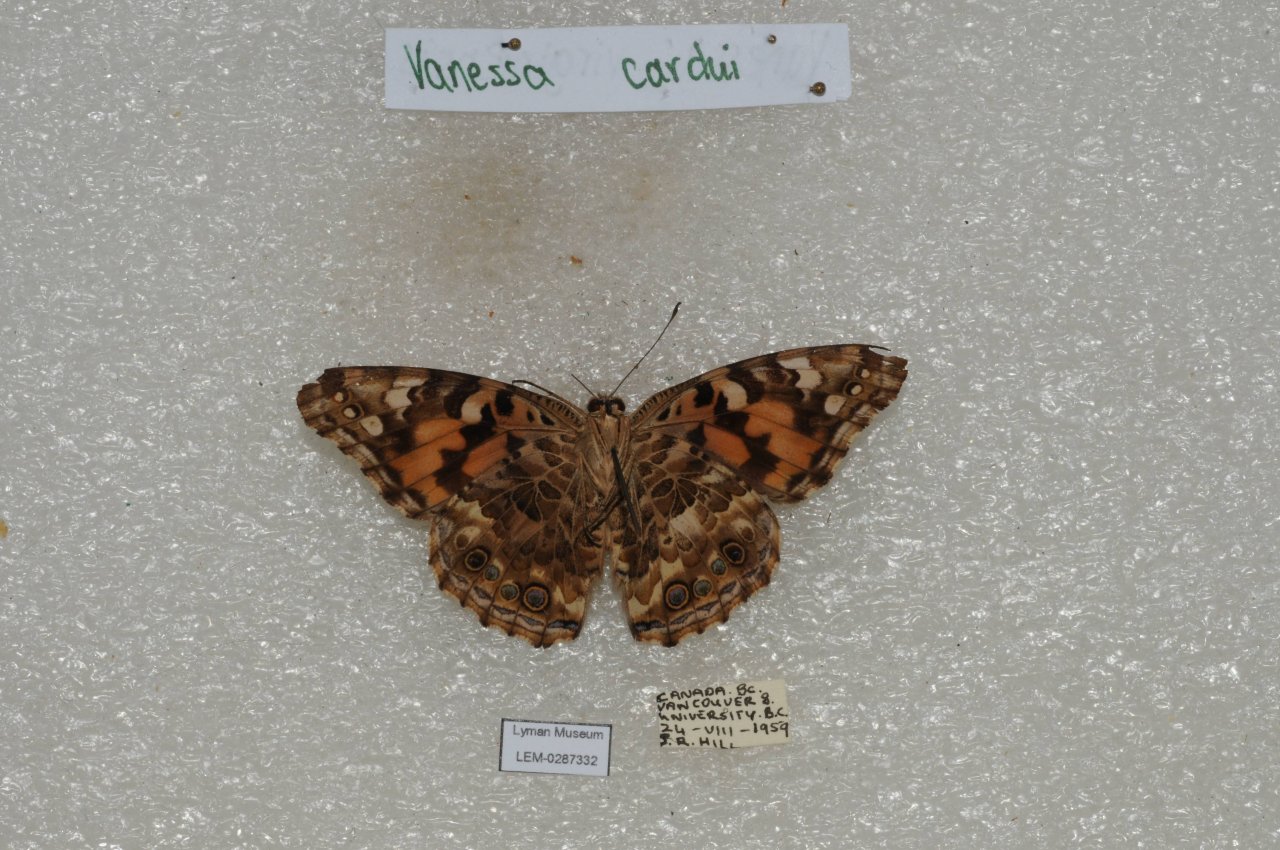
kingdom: Animalia
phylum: Arthropoda
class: Insecta
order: Lepidoptera
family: Nymphalidae
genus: Vanessa
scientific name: Vanessa cardui
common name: Painted Lady
